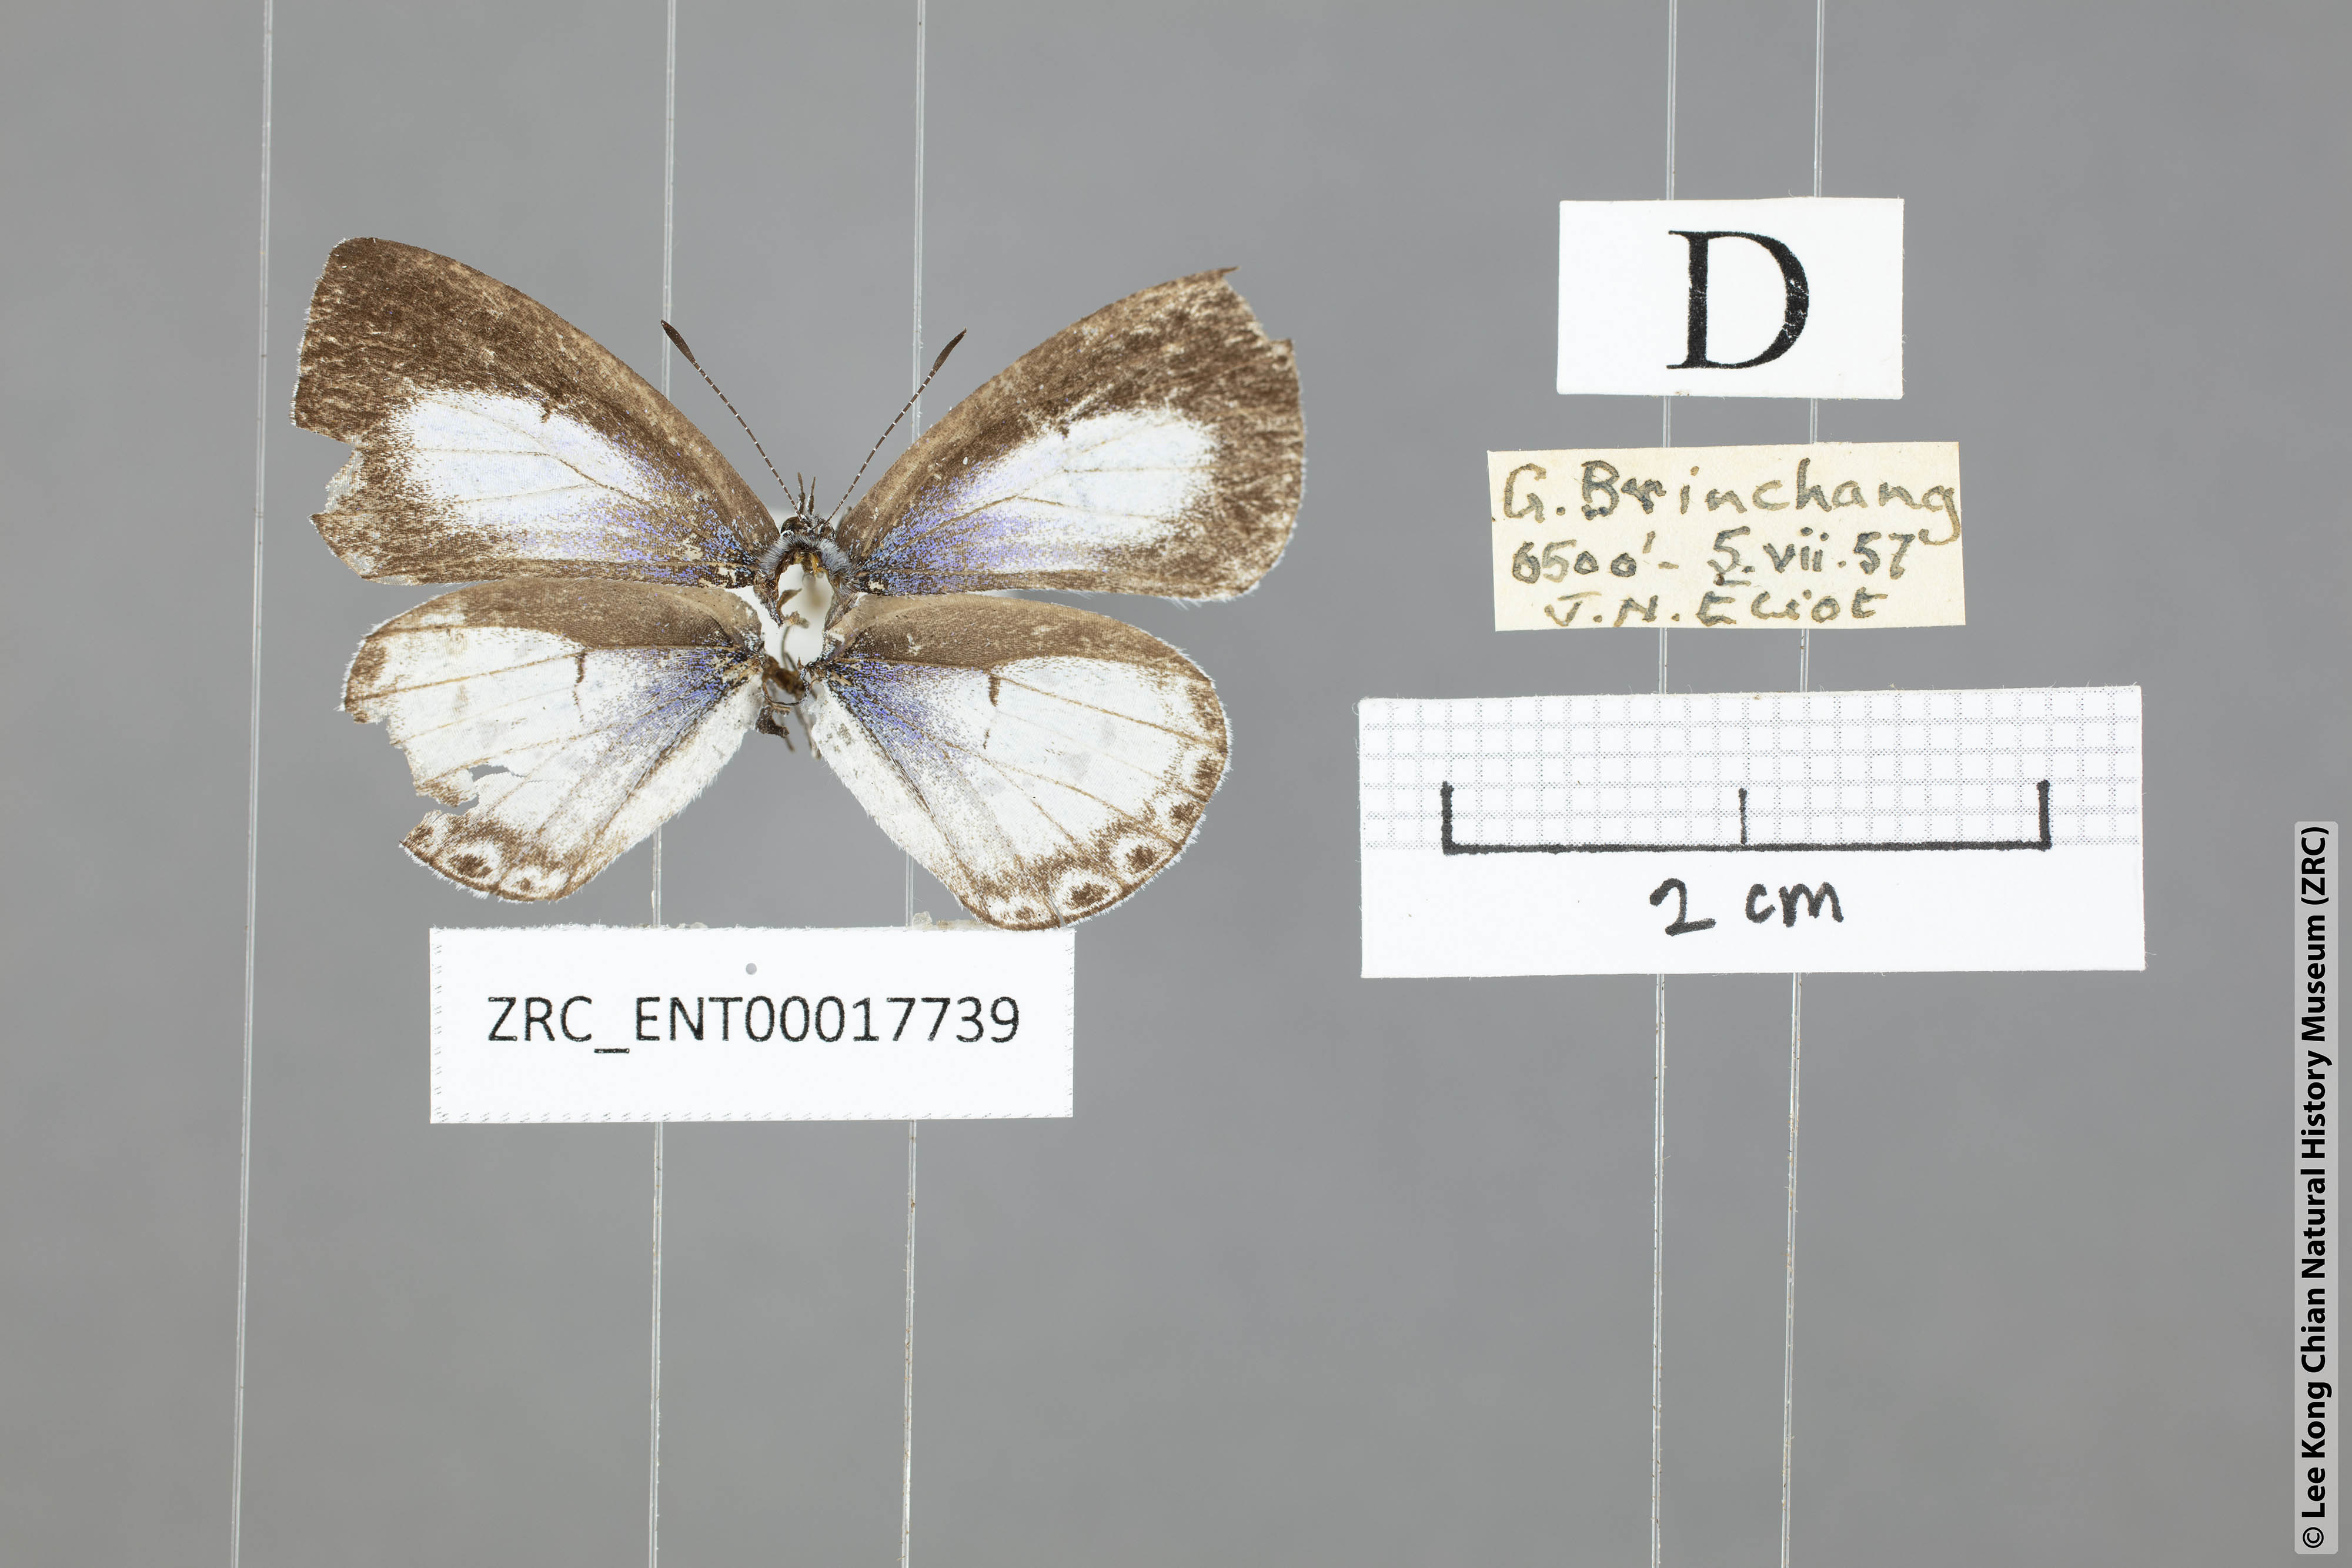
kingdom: Animalia
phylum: Arthropoda
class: Insecta
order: Lepidoptera
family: Lycaenidae
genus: Udara
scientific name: Udara
